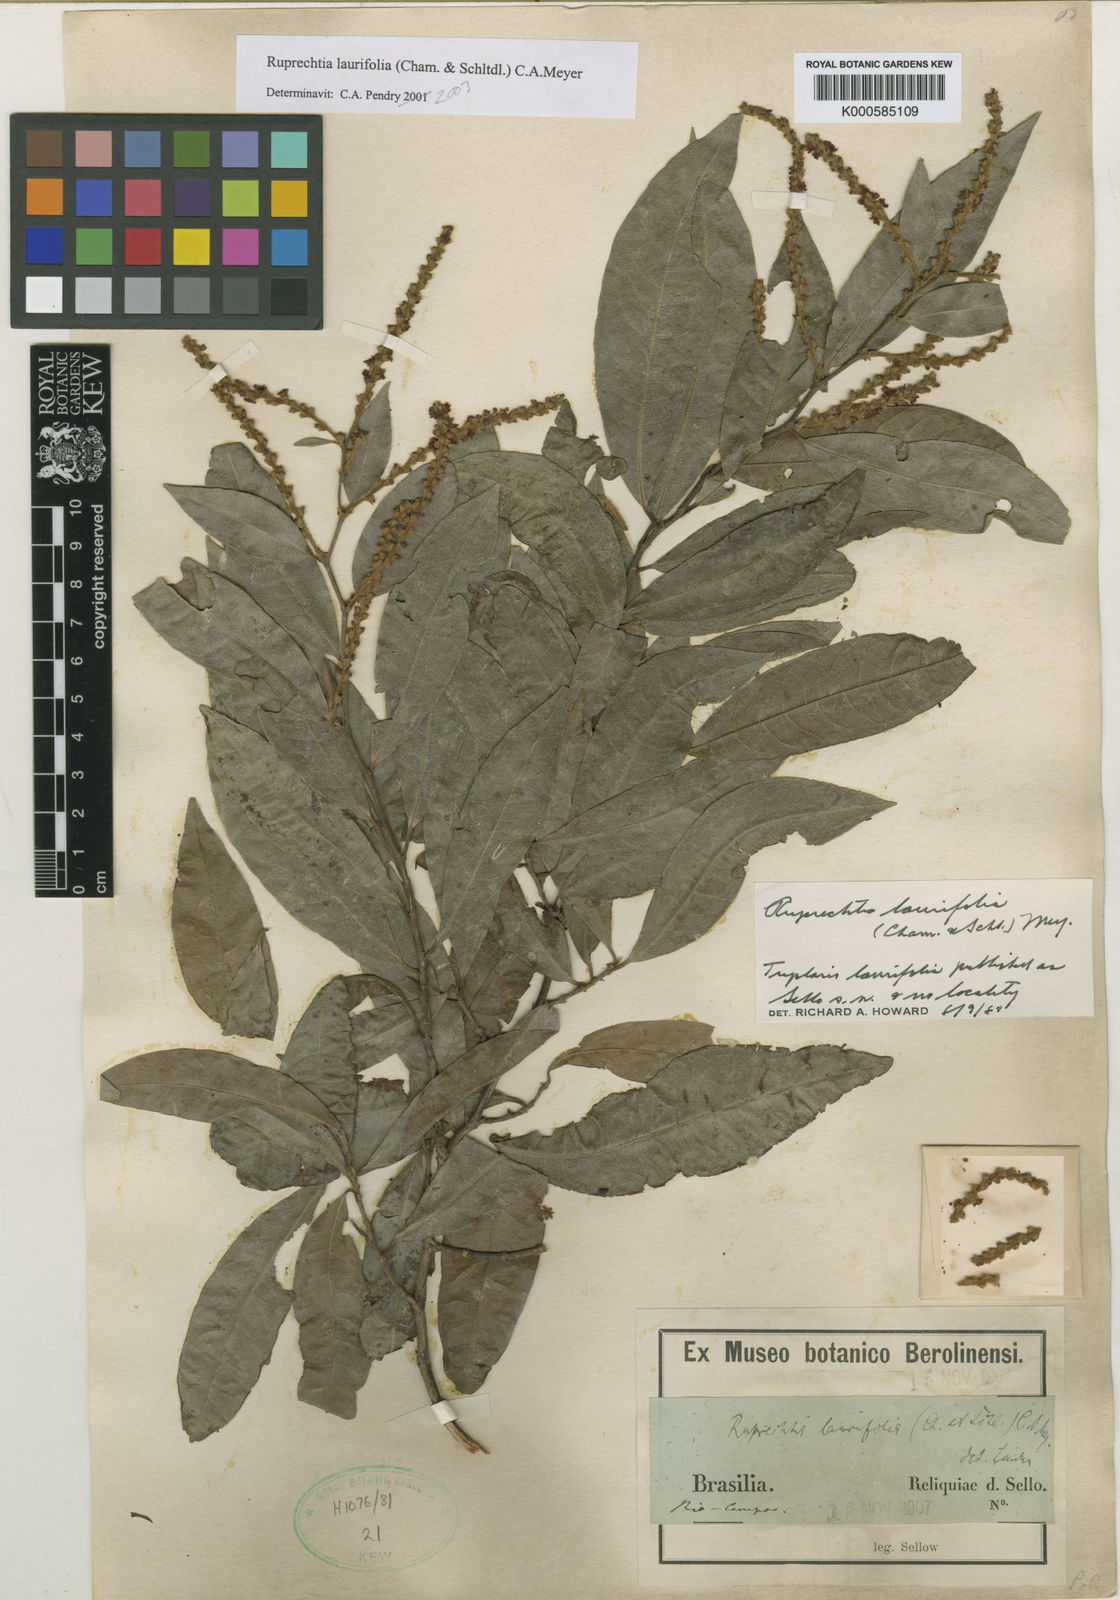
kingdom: Plantae
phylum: Tracheophyta
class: Magnoliopsida
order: Caryophyllales
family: Polygonaceae
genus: Magoniella
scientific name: Magoniella obidensis
